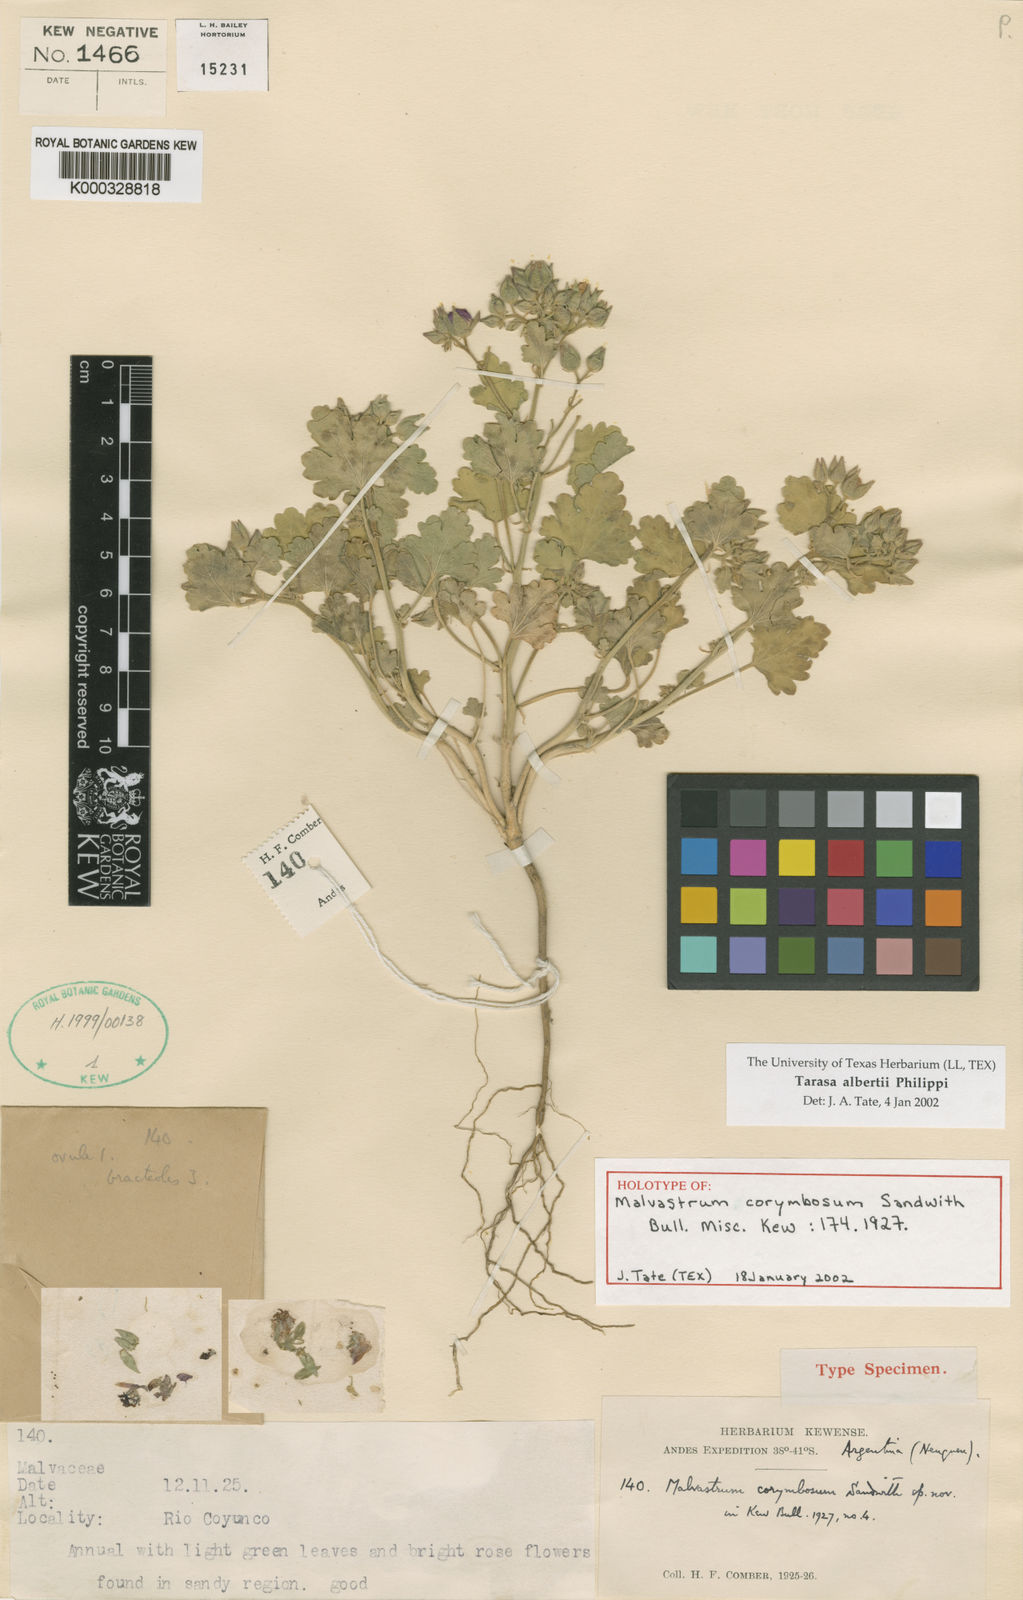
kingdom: Plantae
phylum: Tracheophyta
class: Magnoliopsida
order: Malvales
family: Malvaceae
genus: Tarasa
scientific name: Tarasa alberti
